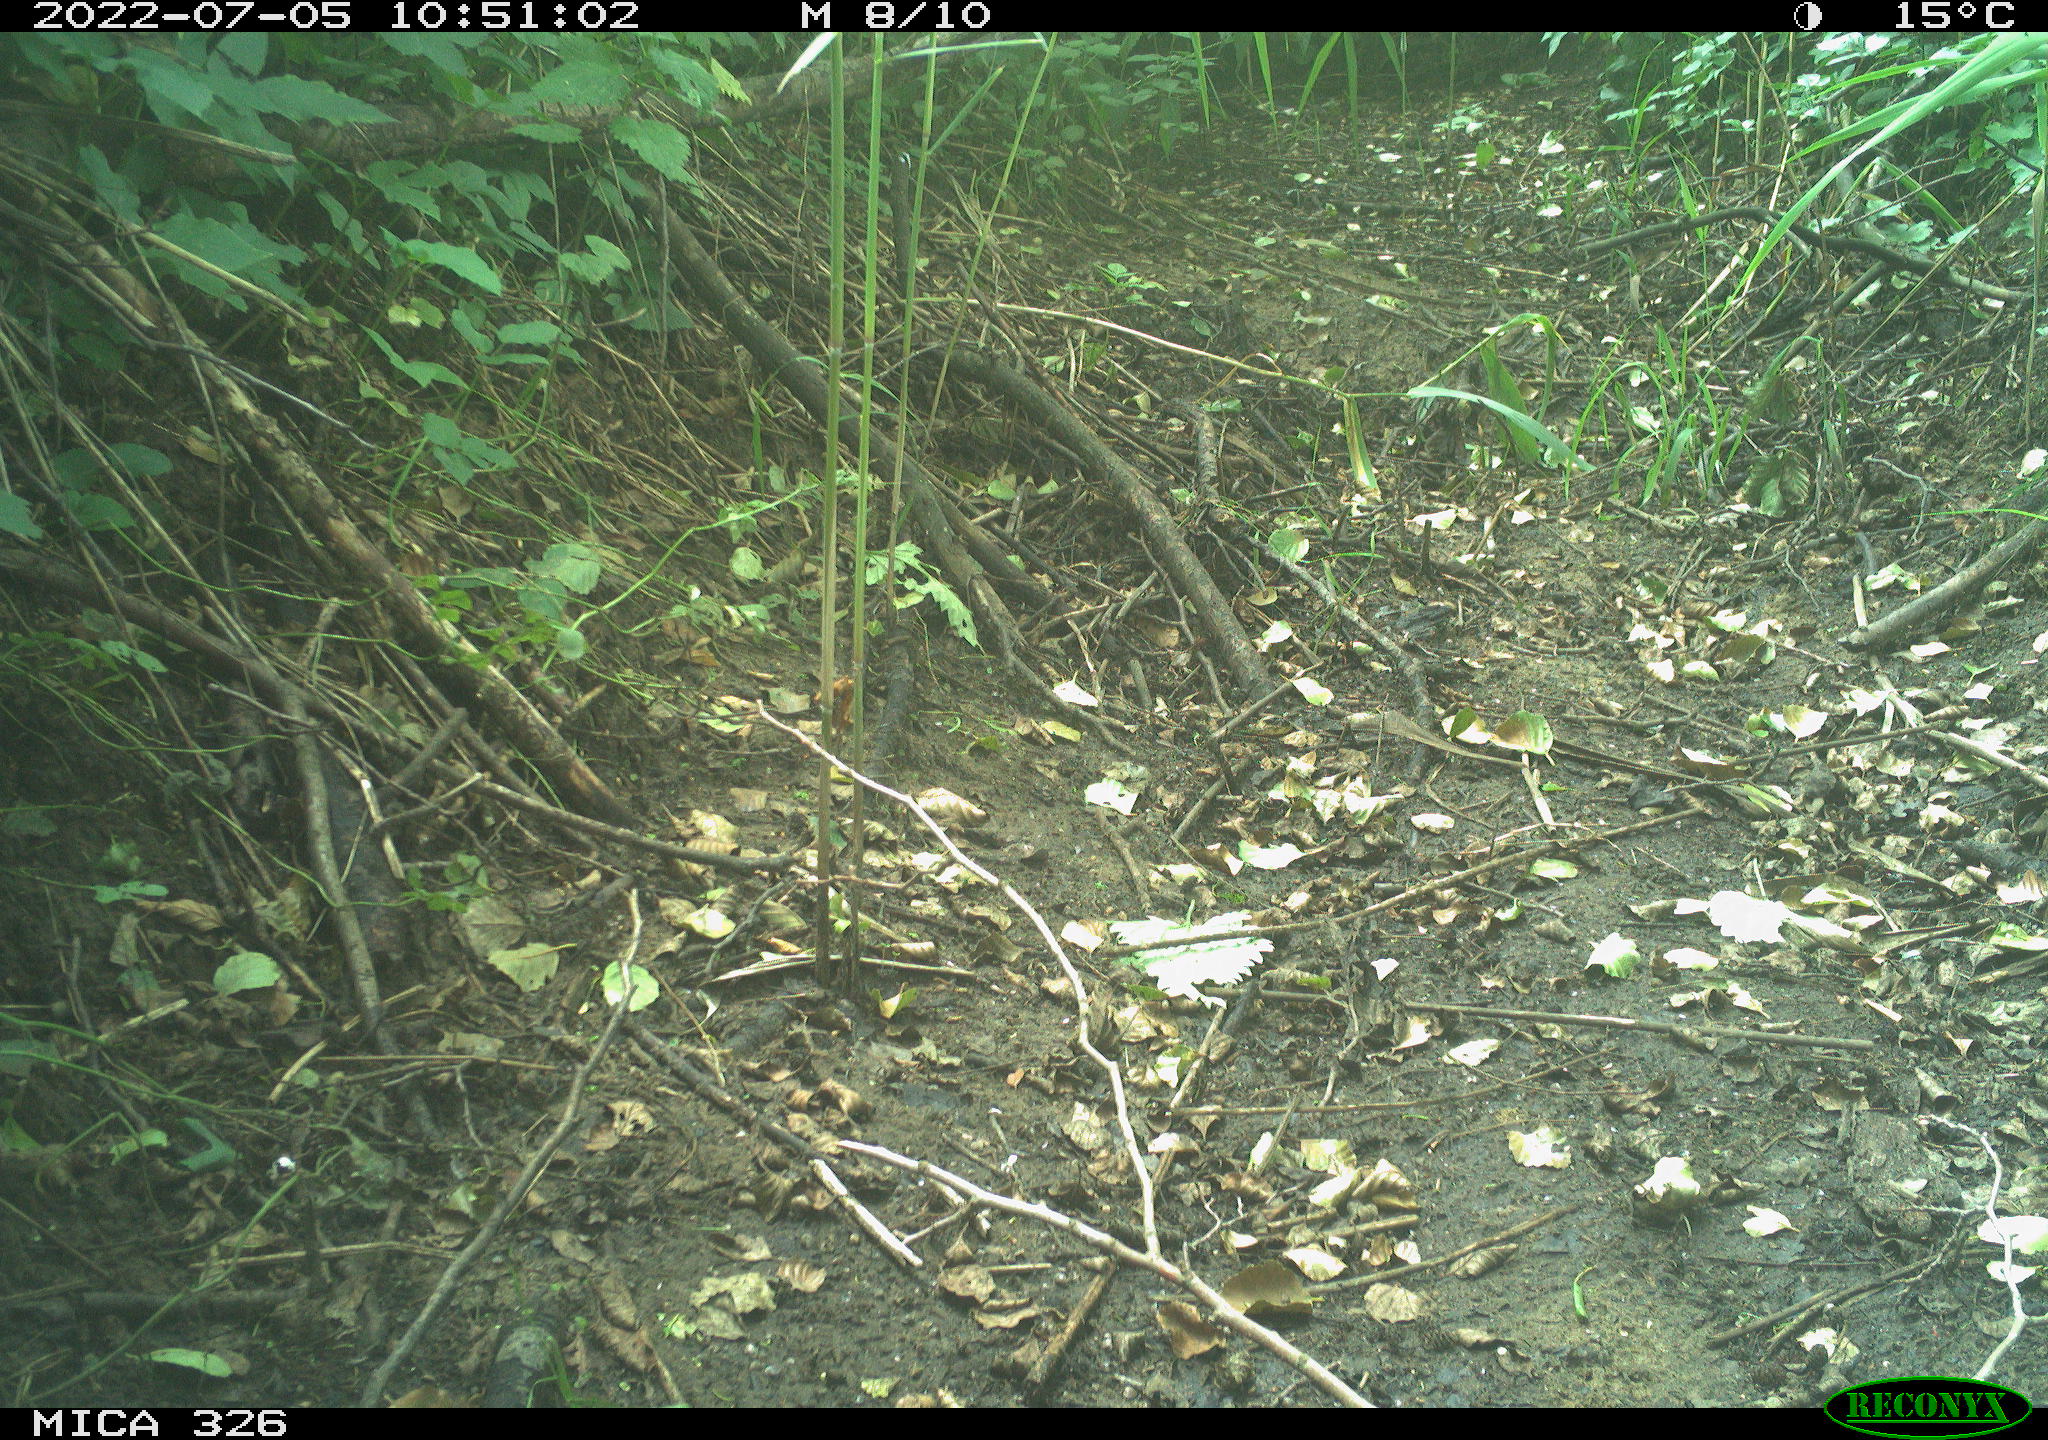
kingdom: Animalia
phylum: Chordata
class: Aves
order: Passeriformes
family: Turdidae
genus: Turdus
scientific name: Turdus philomelos
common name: Song thrush
